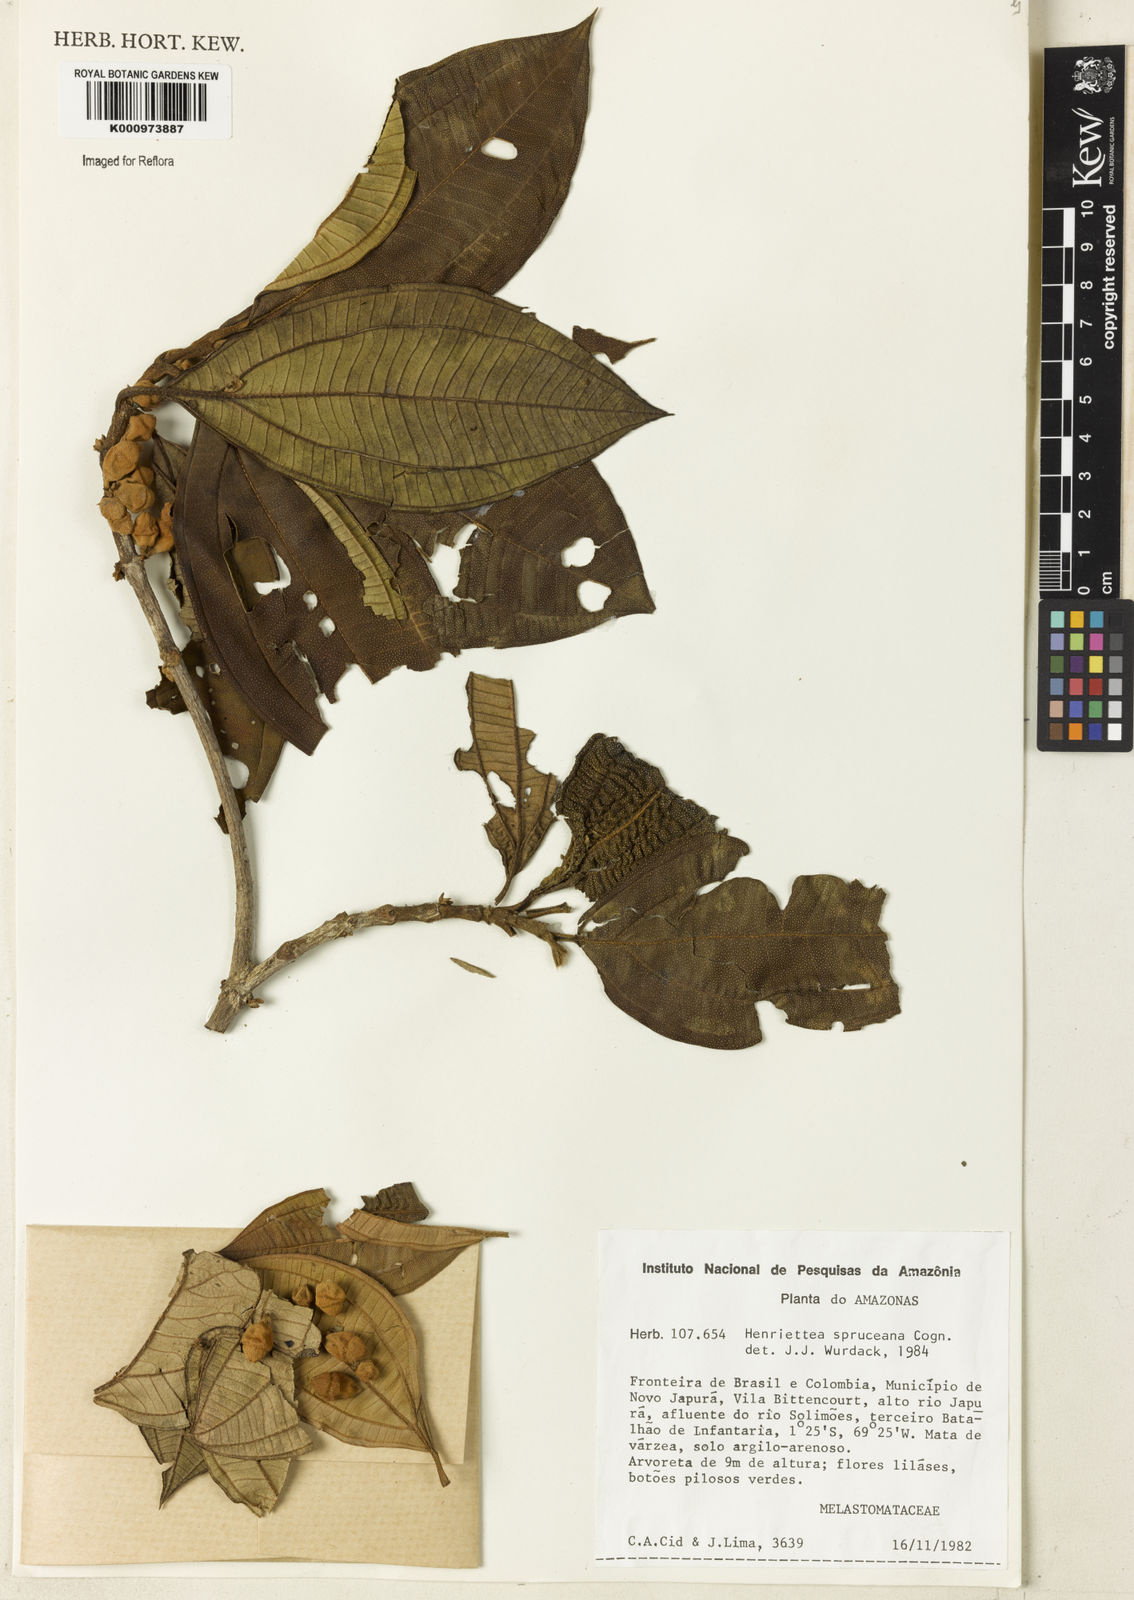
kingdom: Plantae
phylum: Tracheophyta
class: Magnoliopsida
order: Myrtales
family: Melastomataceae
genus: Henriettea
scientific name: Henriettea spruceana
